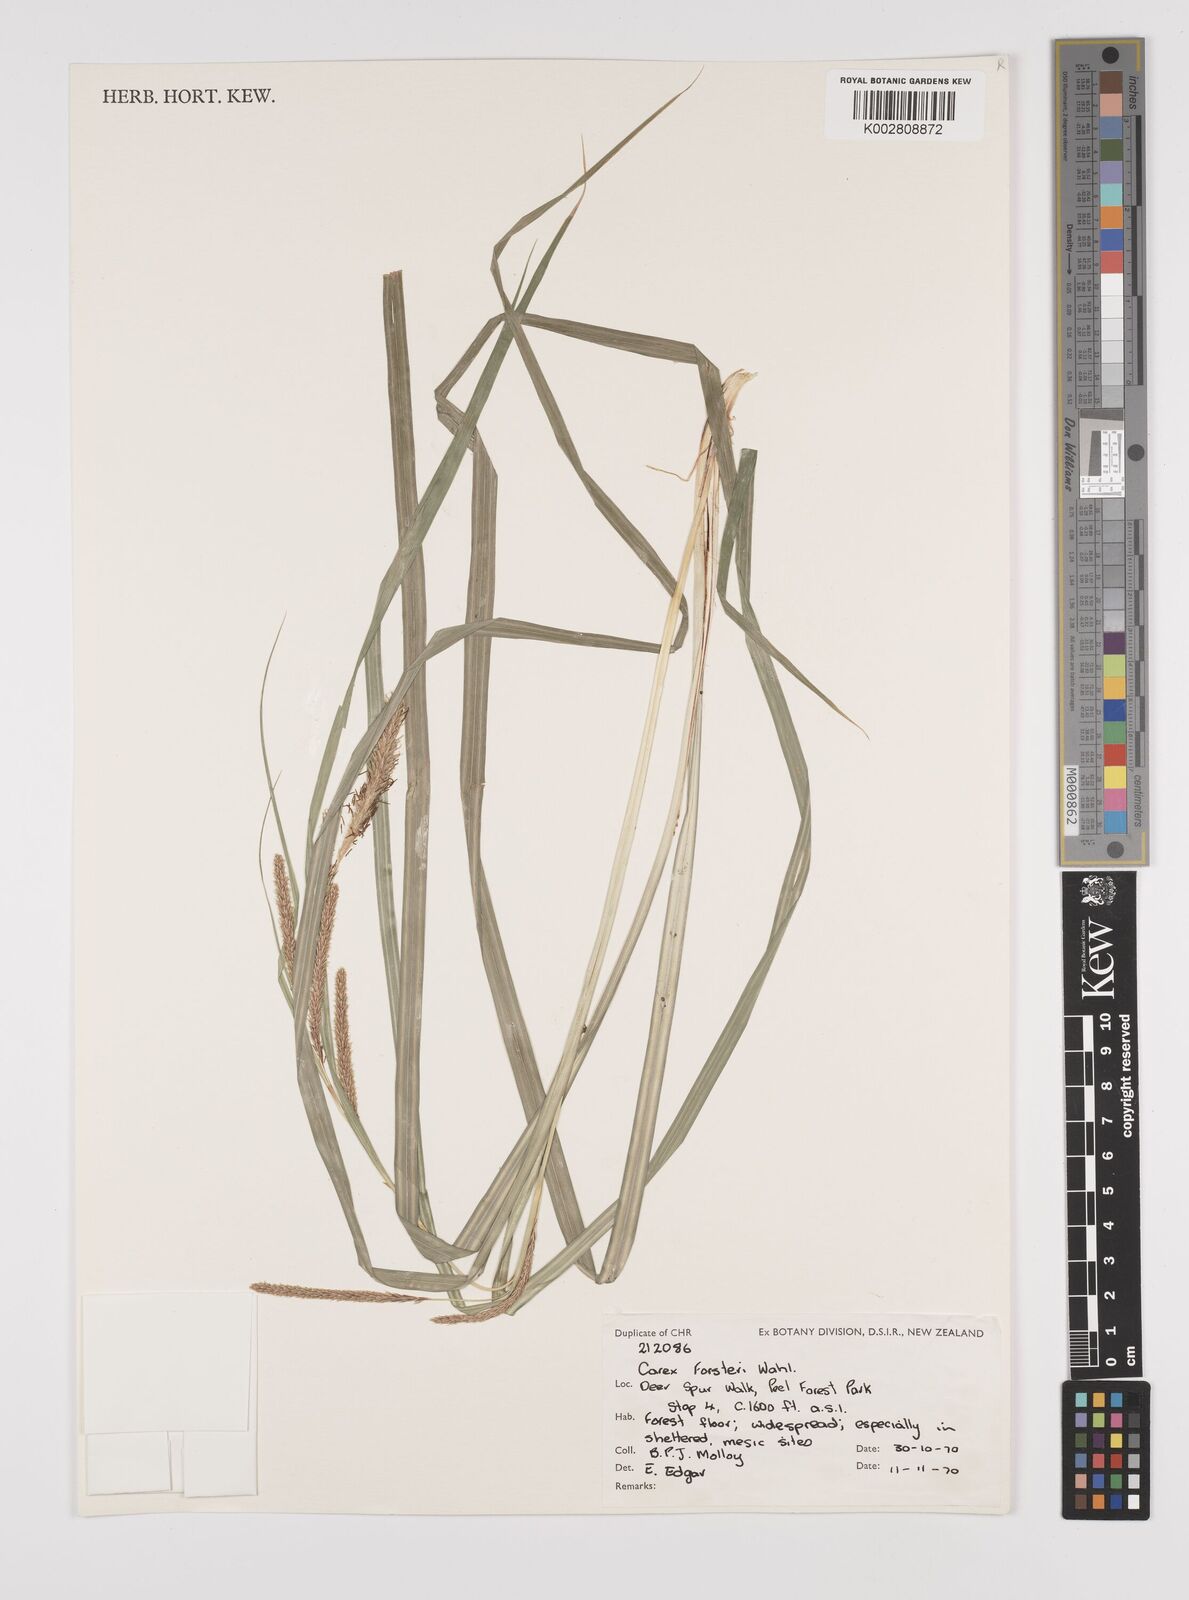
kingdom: Plantae
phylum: Tracheophyta
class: Liliopsida
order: Poales
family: Cyperaceae
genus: Carex
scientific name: Carex forsteri
